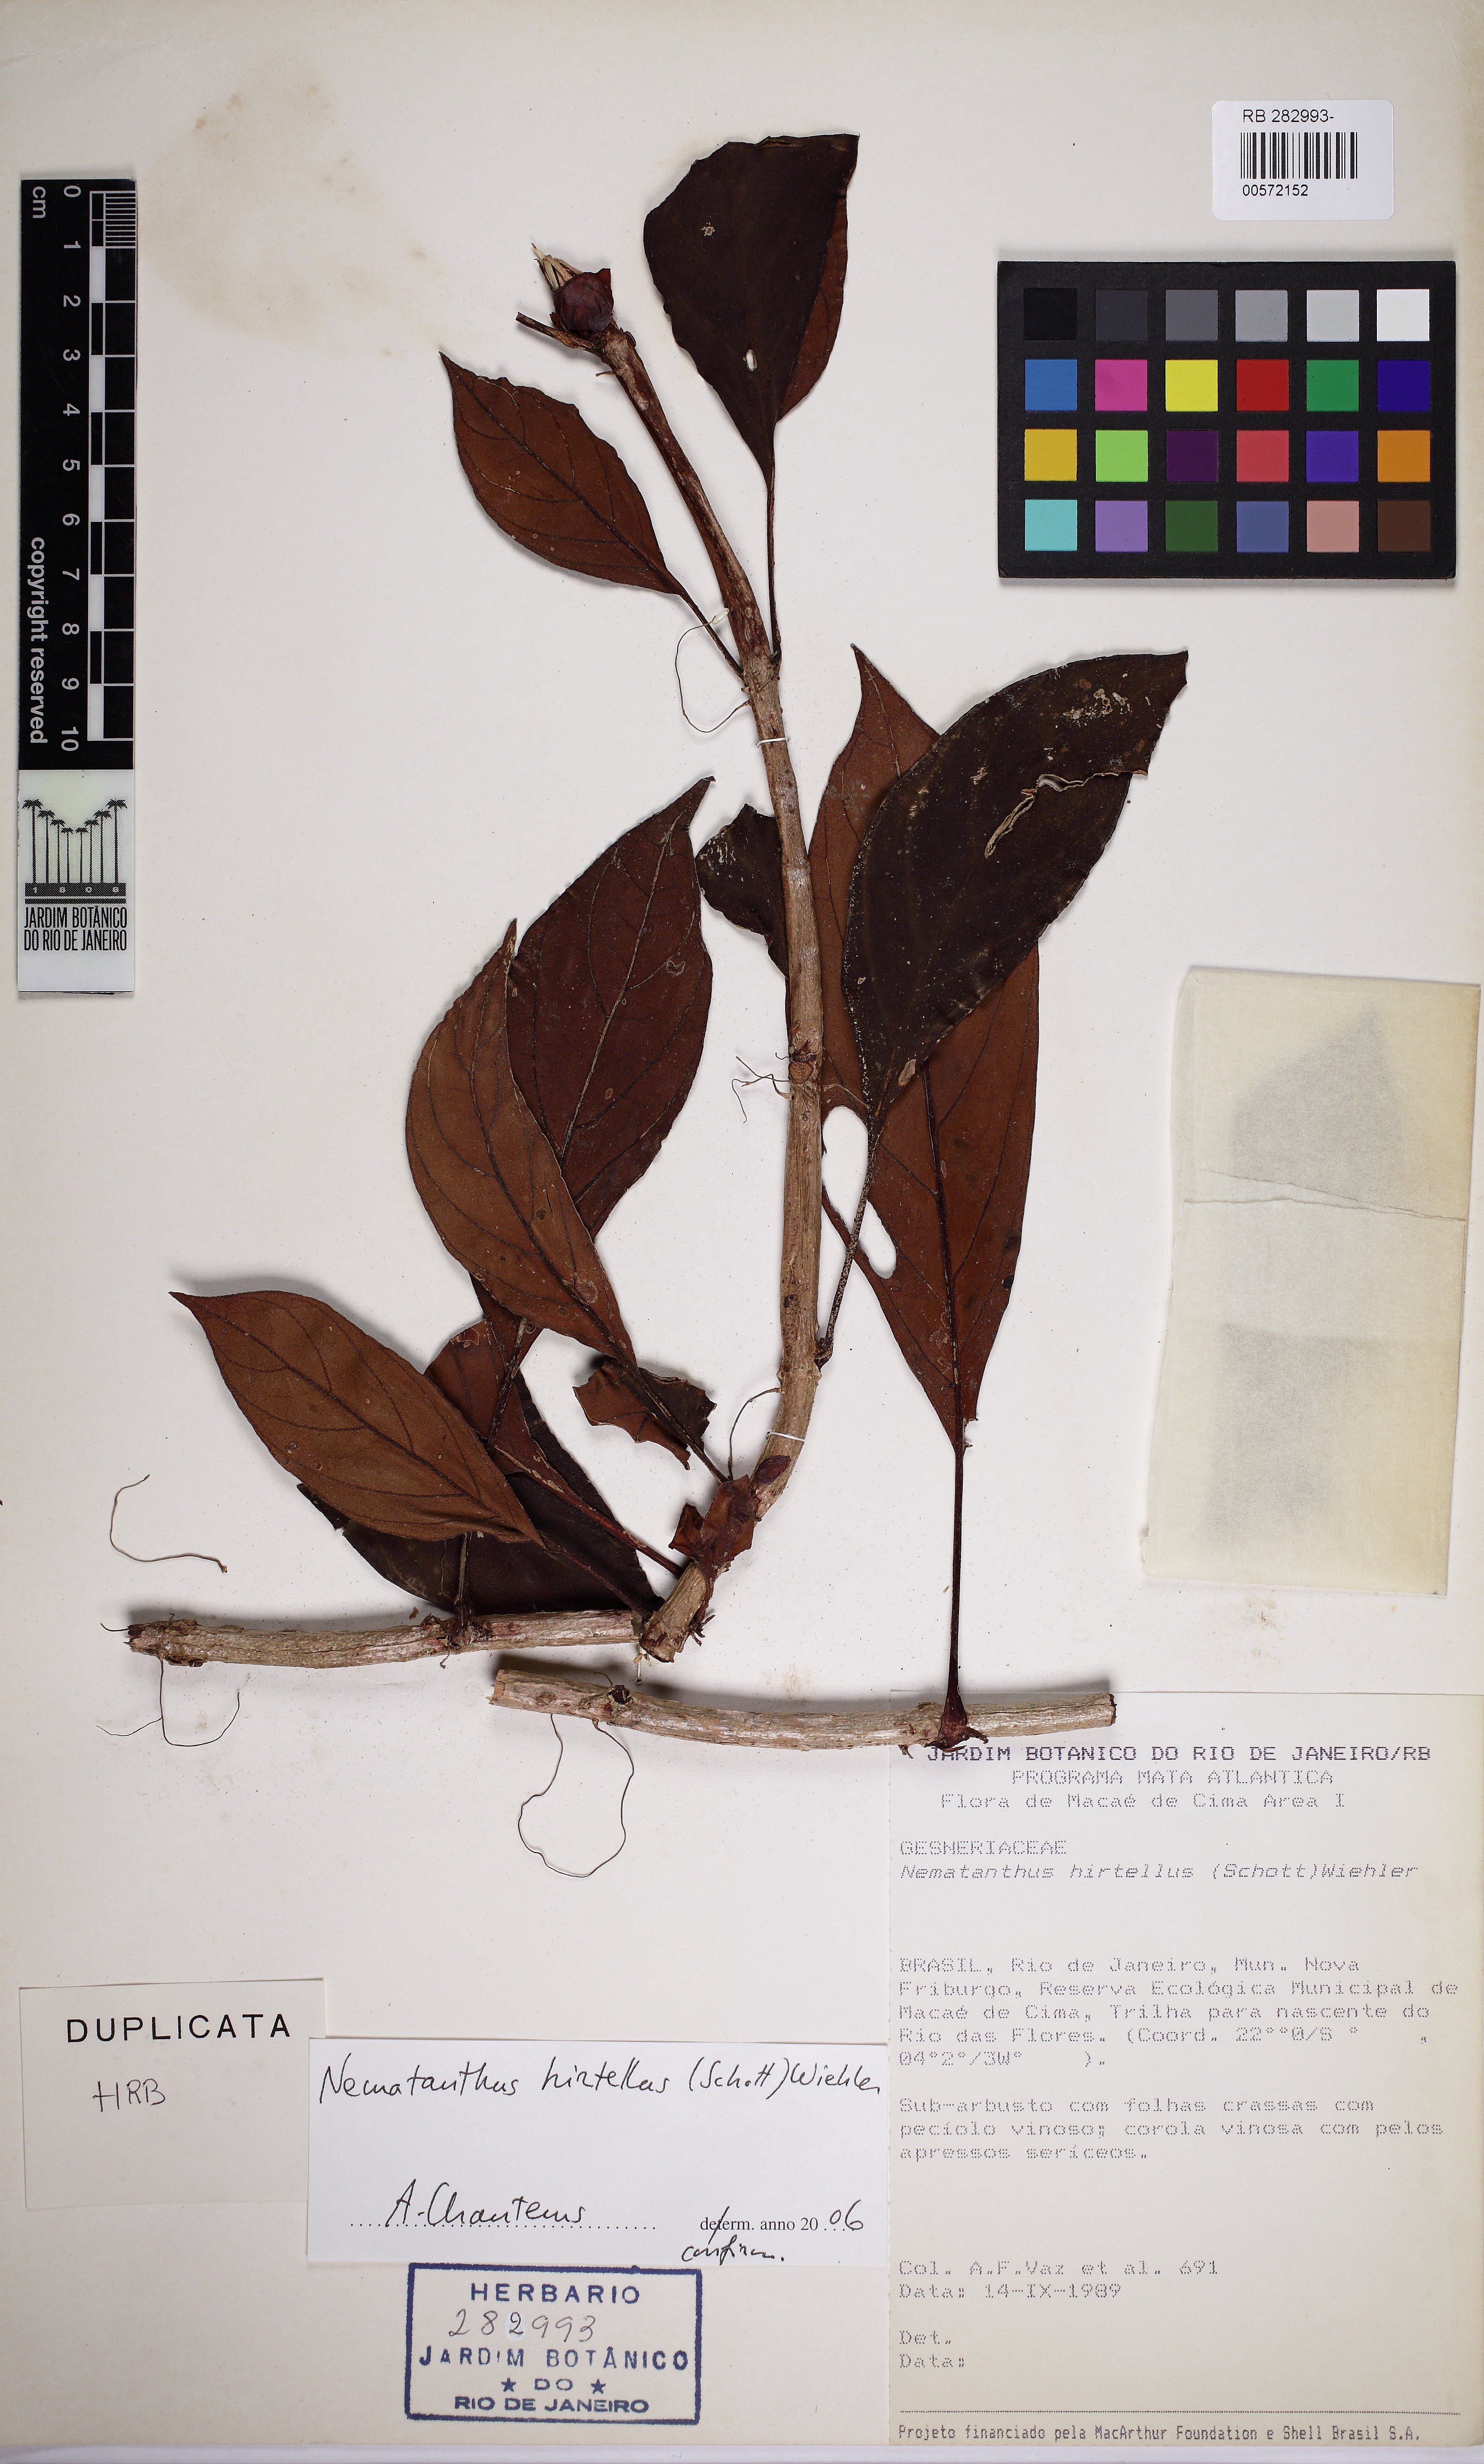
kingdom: Plantae
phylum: Tracheophyta
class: Magnoliopsida
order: Lamiales
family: Gesneriaceae
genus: Nematanthus
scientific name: Nematanthus hirtellus
